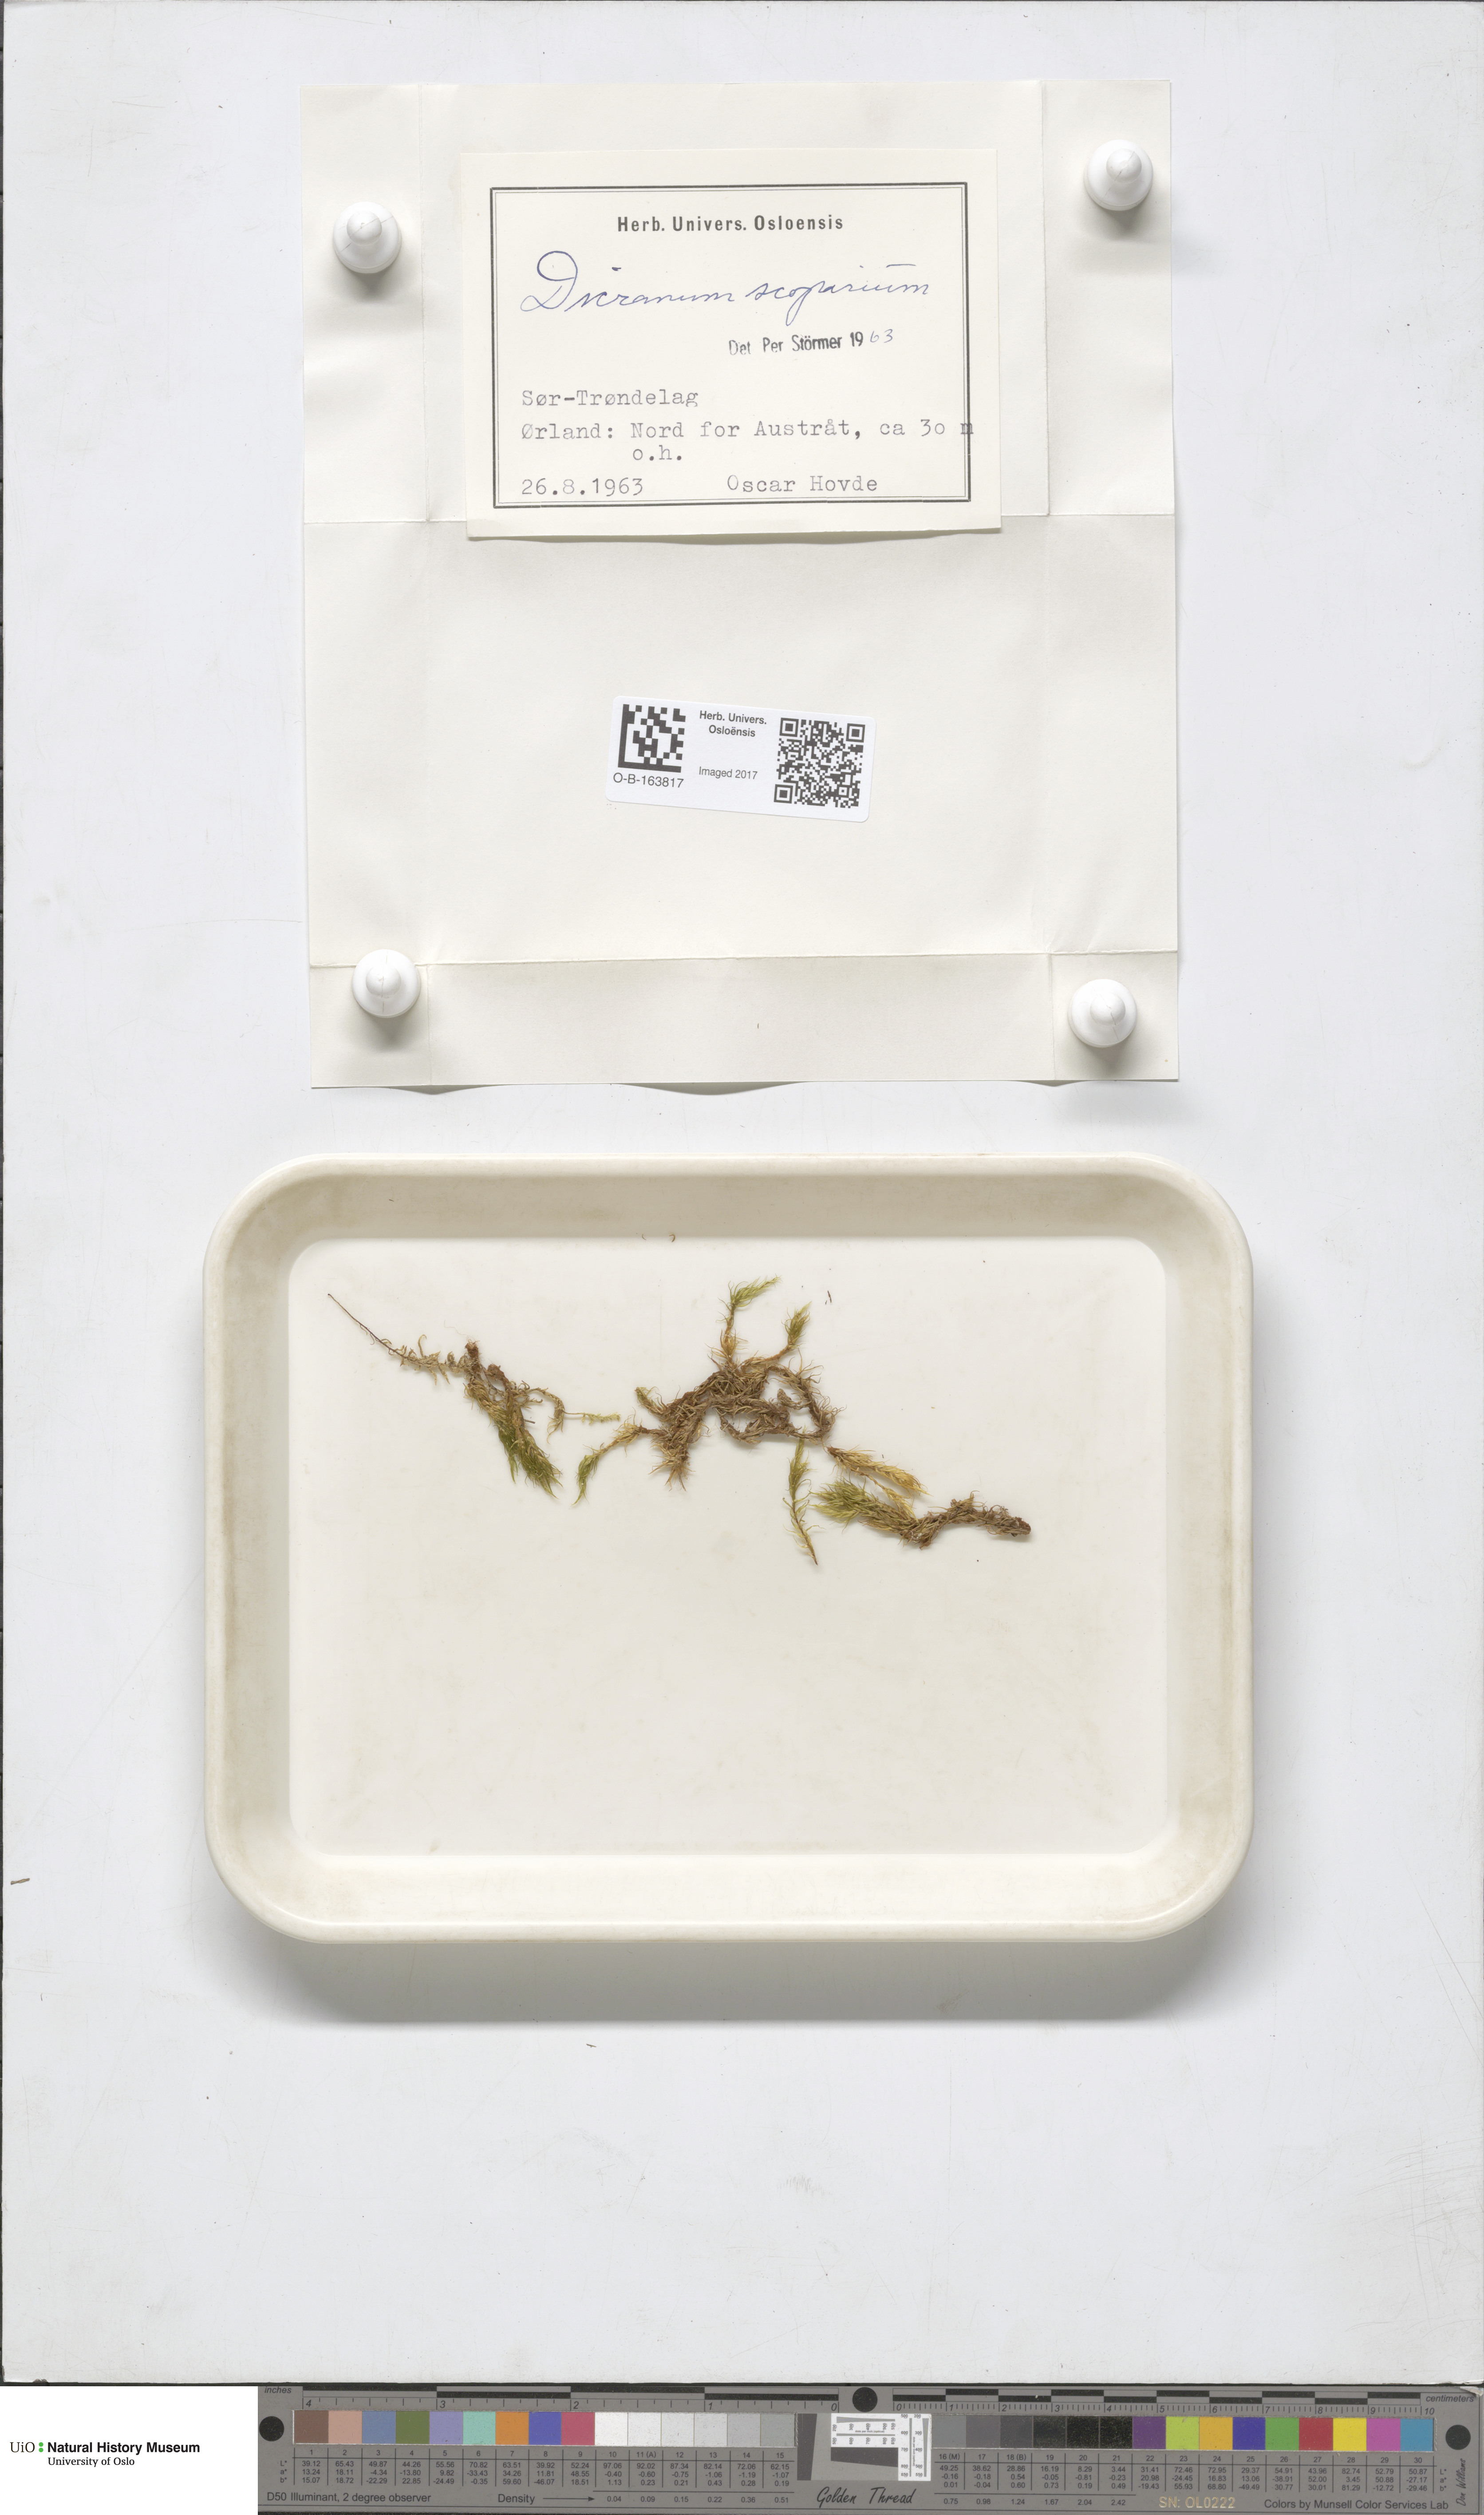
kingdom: Plantae
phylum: Bryophyta
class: Bryopsida
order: Dicranales
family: Dicranaceae
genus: Dicranum
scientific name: Dicranum scoparium
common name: Broom fork-moss
